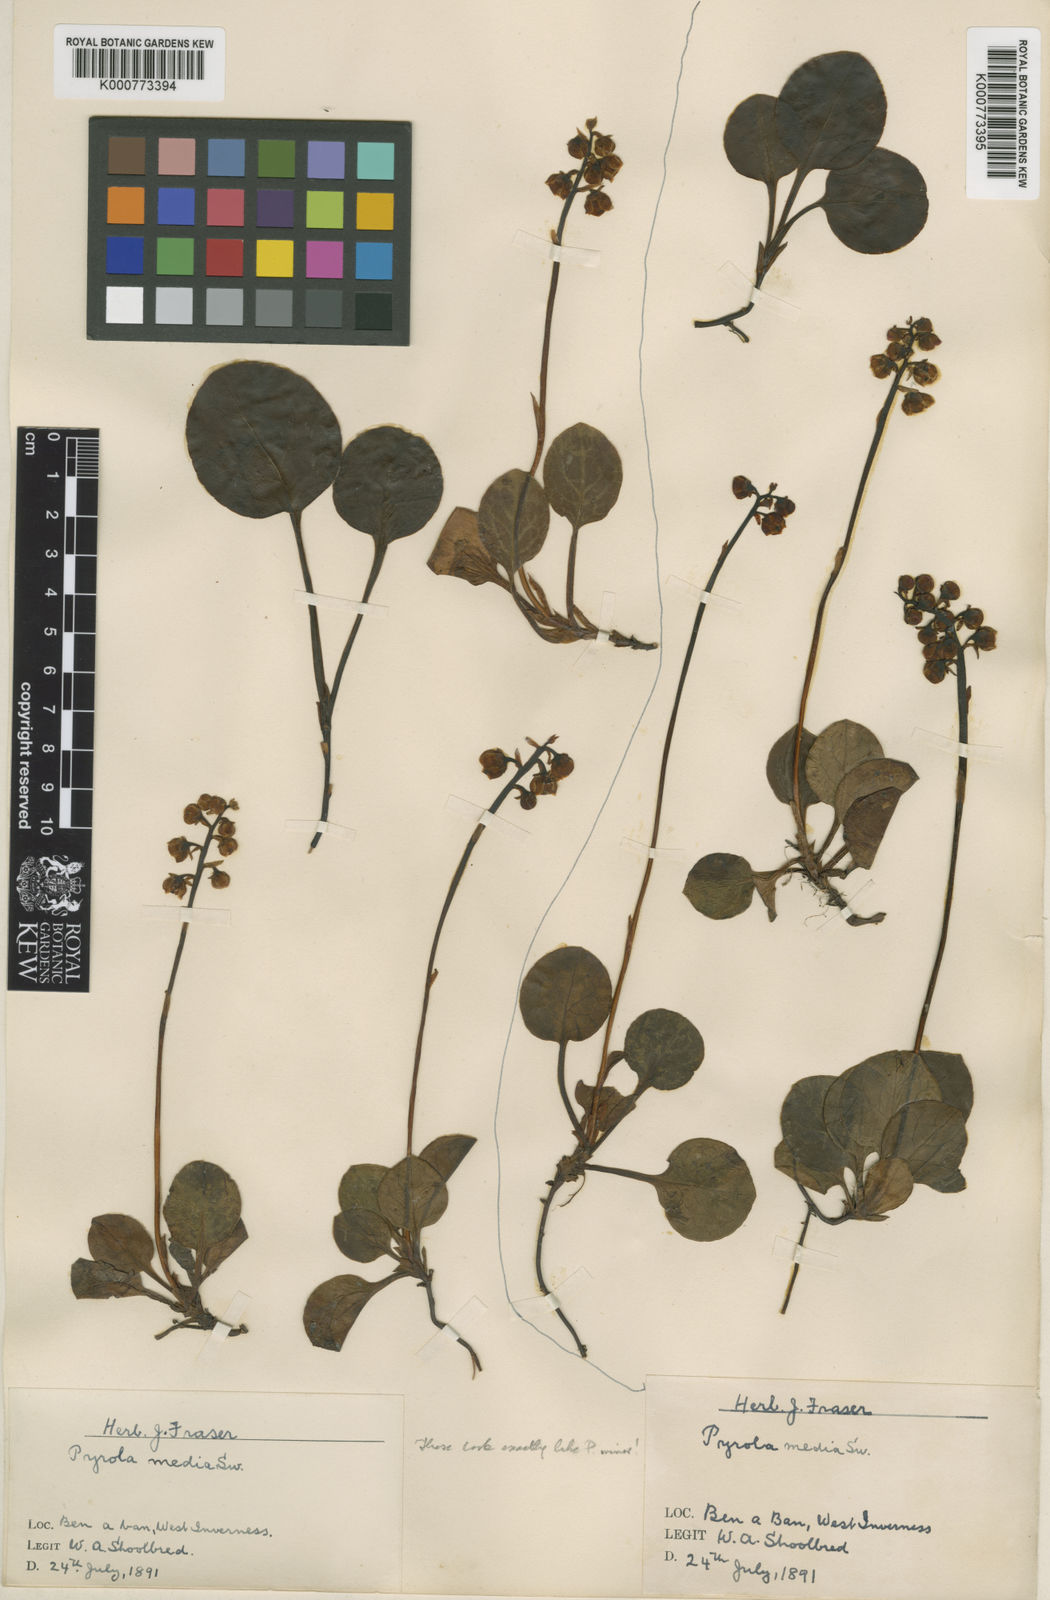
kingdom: Plantae
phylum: Tracheophyta
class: Magnoliopsida
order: Ericales
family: Ericaceae
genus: Pyrola
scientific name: Pyrola media
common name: Intermediate wintergreen
